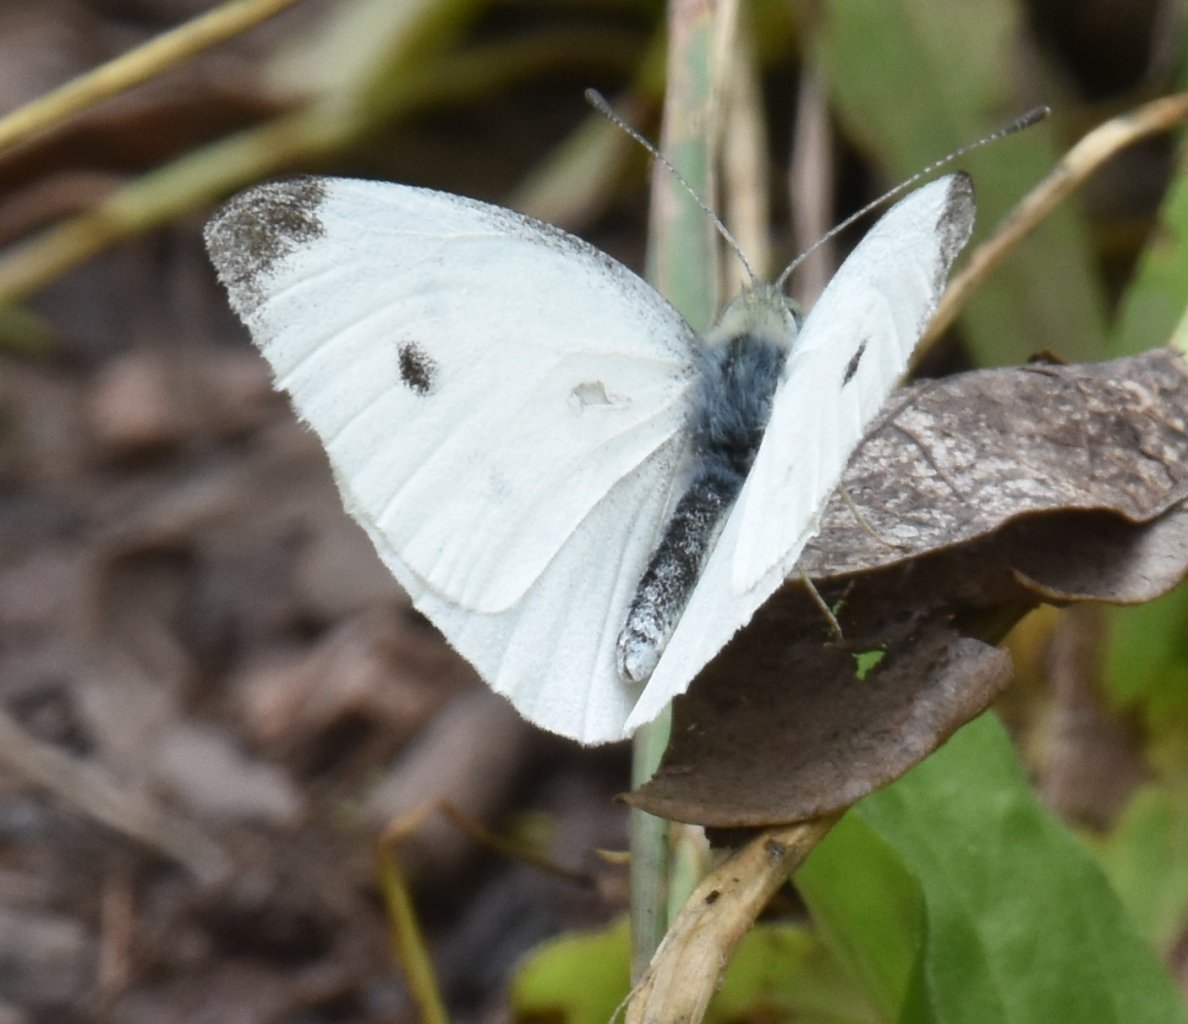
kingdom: Animalia
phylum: Arthropoda
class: Insecta
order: Lepidoptera
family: Pieridae
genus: Pieris
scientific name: Pieris rapae
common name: Cabbage White
